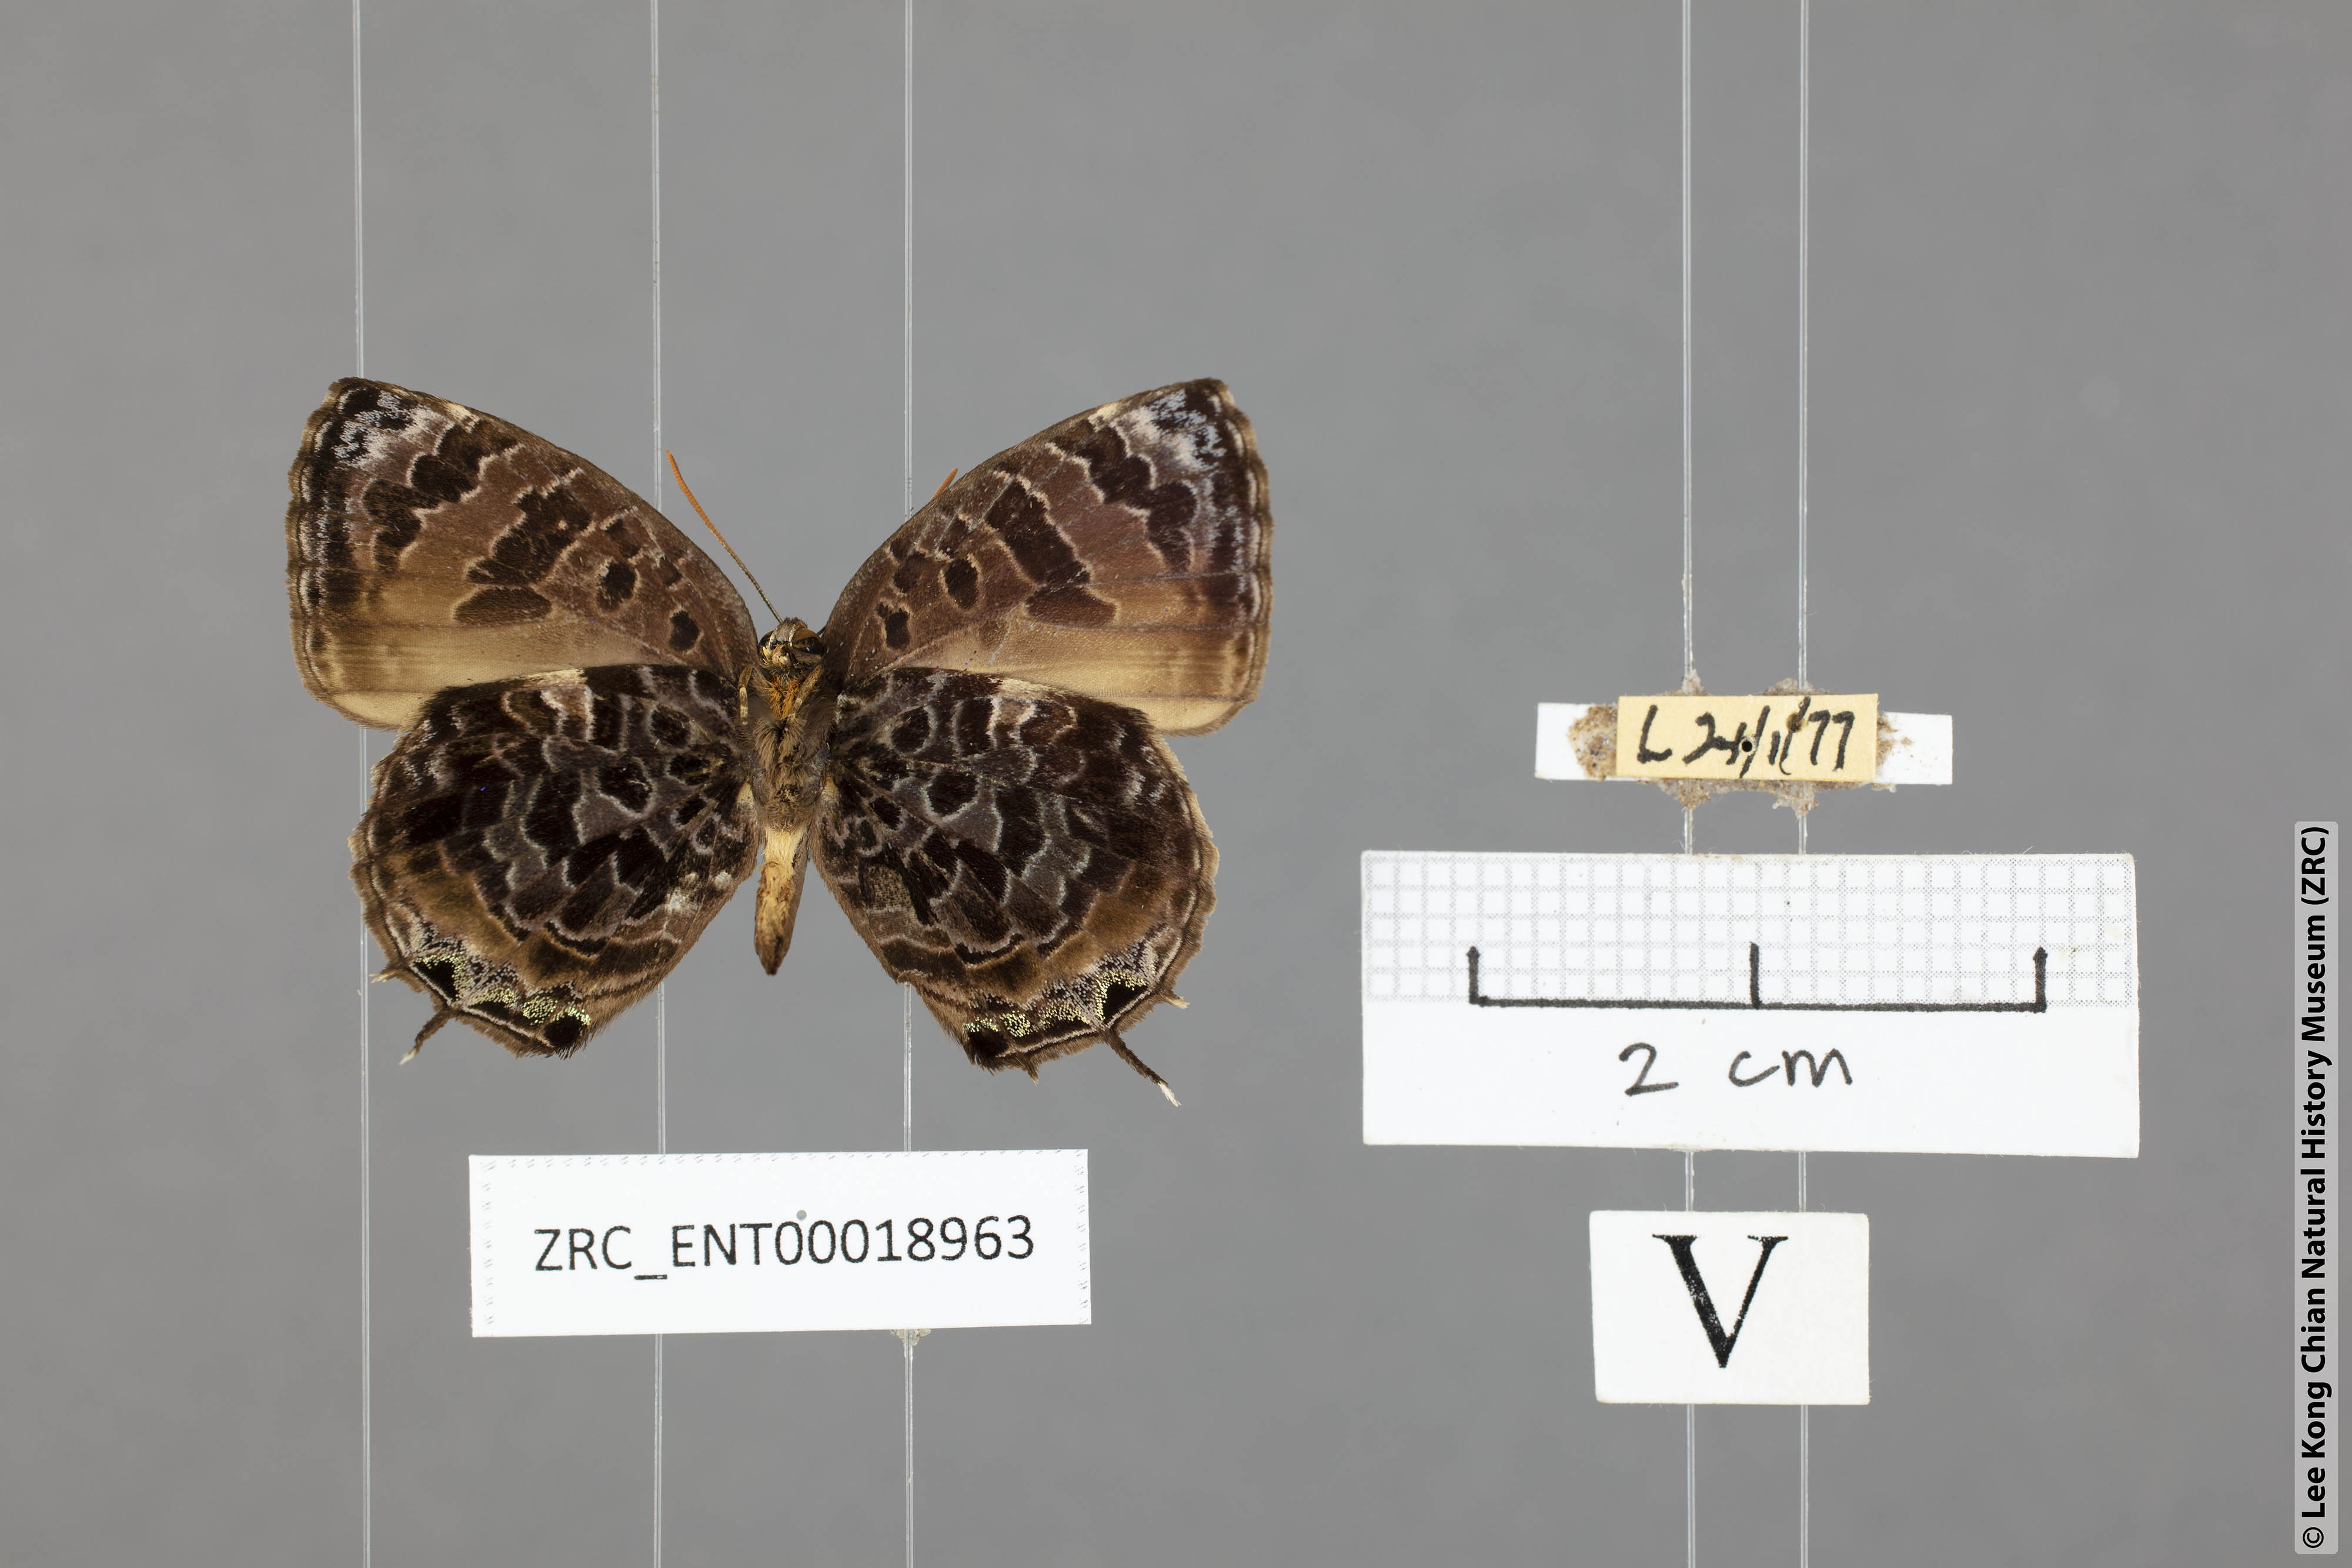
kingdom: Animalia
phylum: Arthropoda
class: Insecta
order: Lepidoptera
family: Lycaenidae
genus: Arhopala
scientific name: Arhopala abseus
